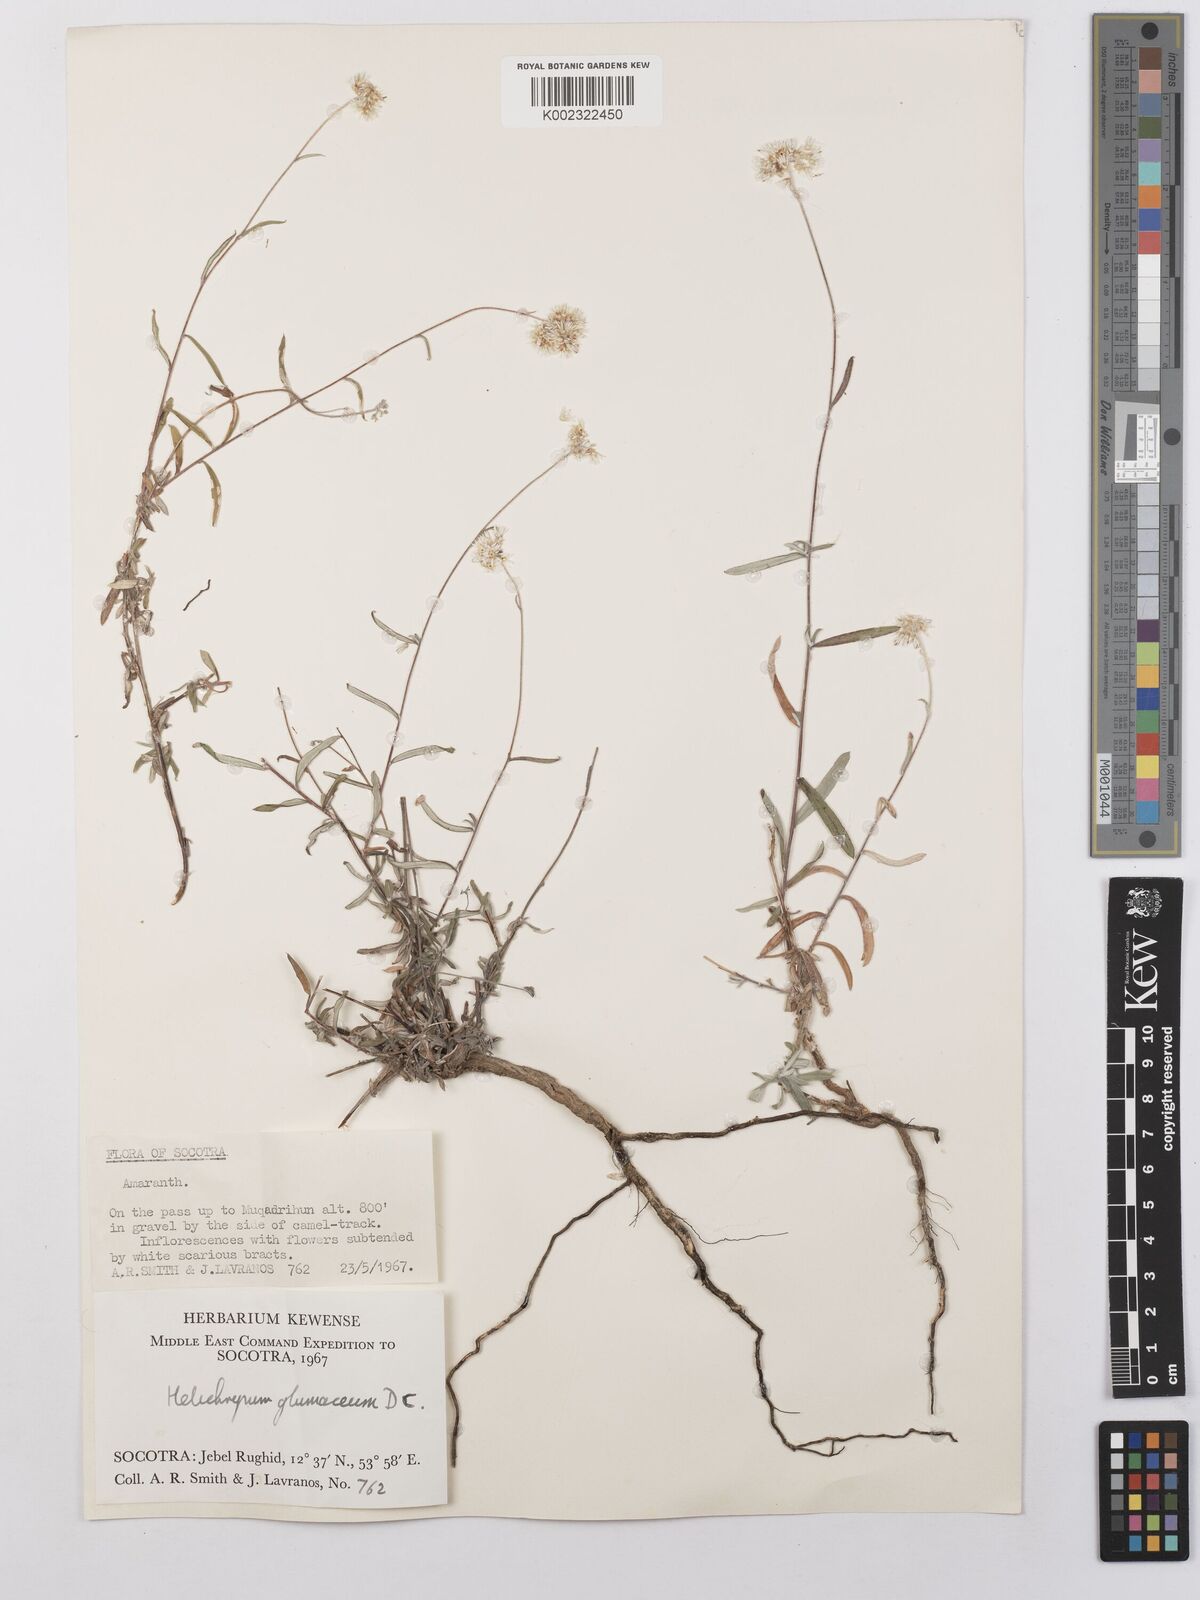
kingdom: Plantae
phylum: Tracheophyta
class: Magnoliopsida
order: Asterales
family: Asteraceae
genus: Helichrysum
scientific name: Helichrysum glumaceum
